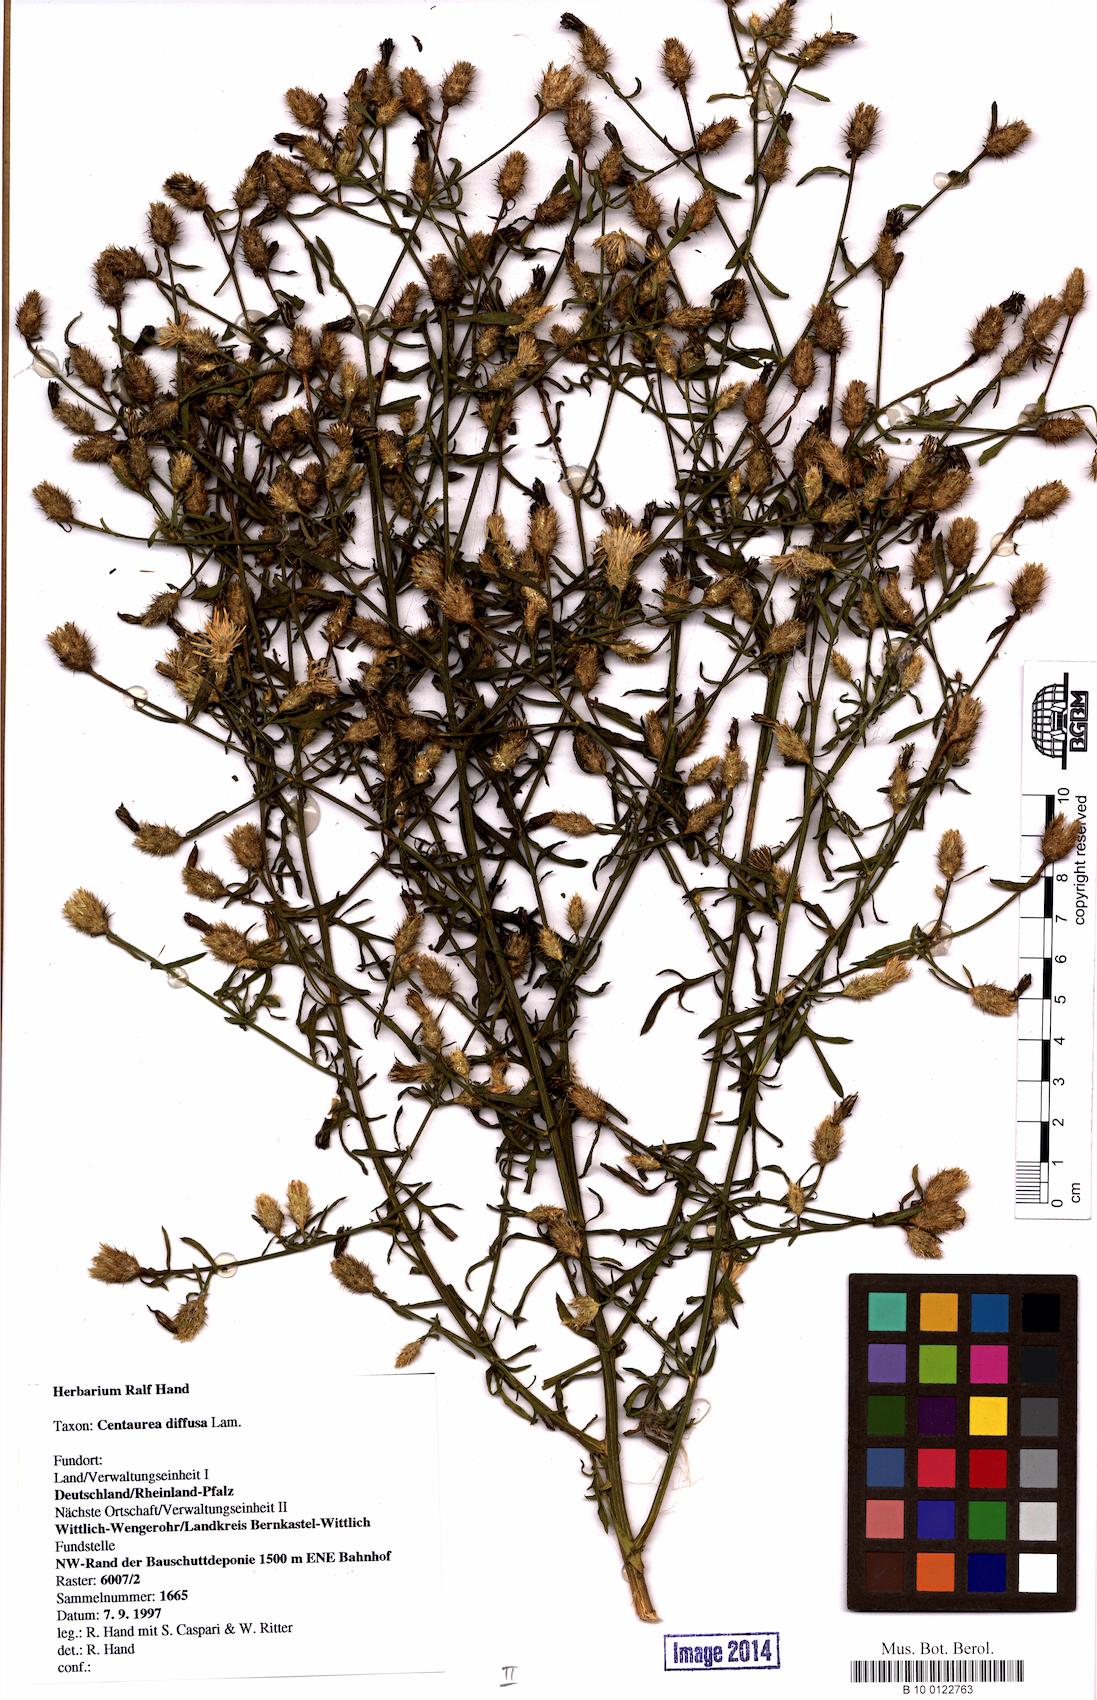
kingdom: Plantae
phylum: Tracheophyta
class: Magnoliopsida
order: Asterales
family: Asteraceae
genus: Centaurea
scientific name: Centaurea diffusa
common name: Diffuse knapweed
